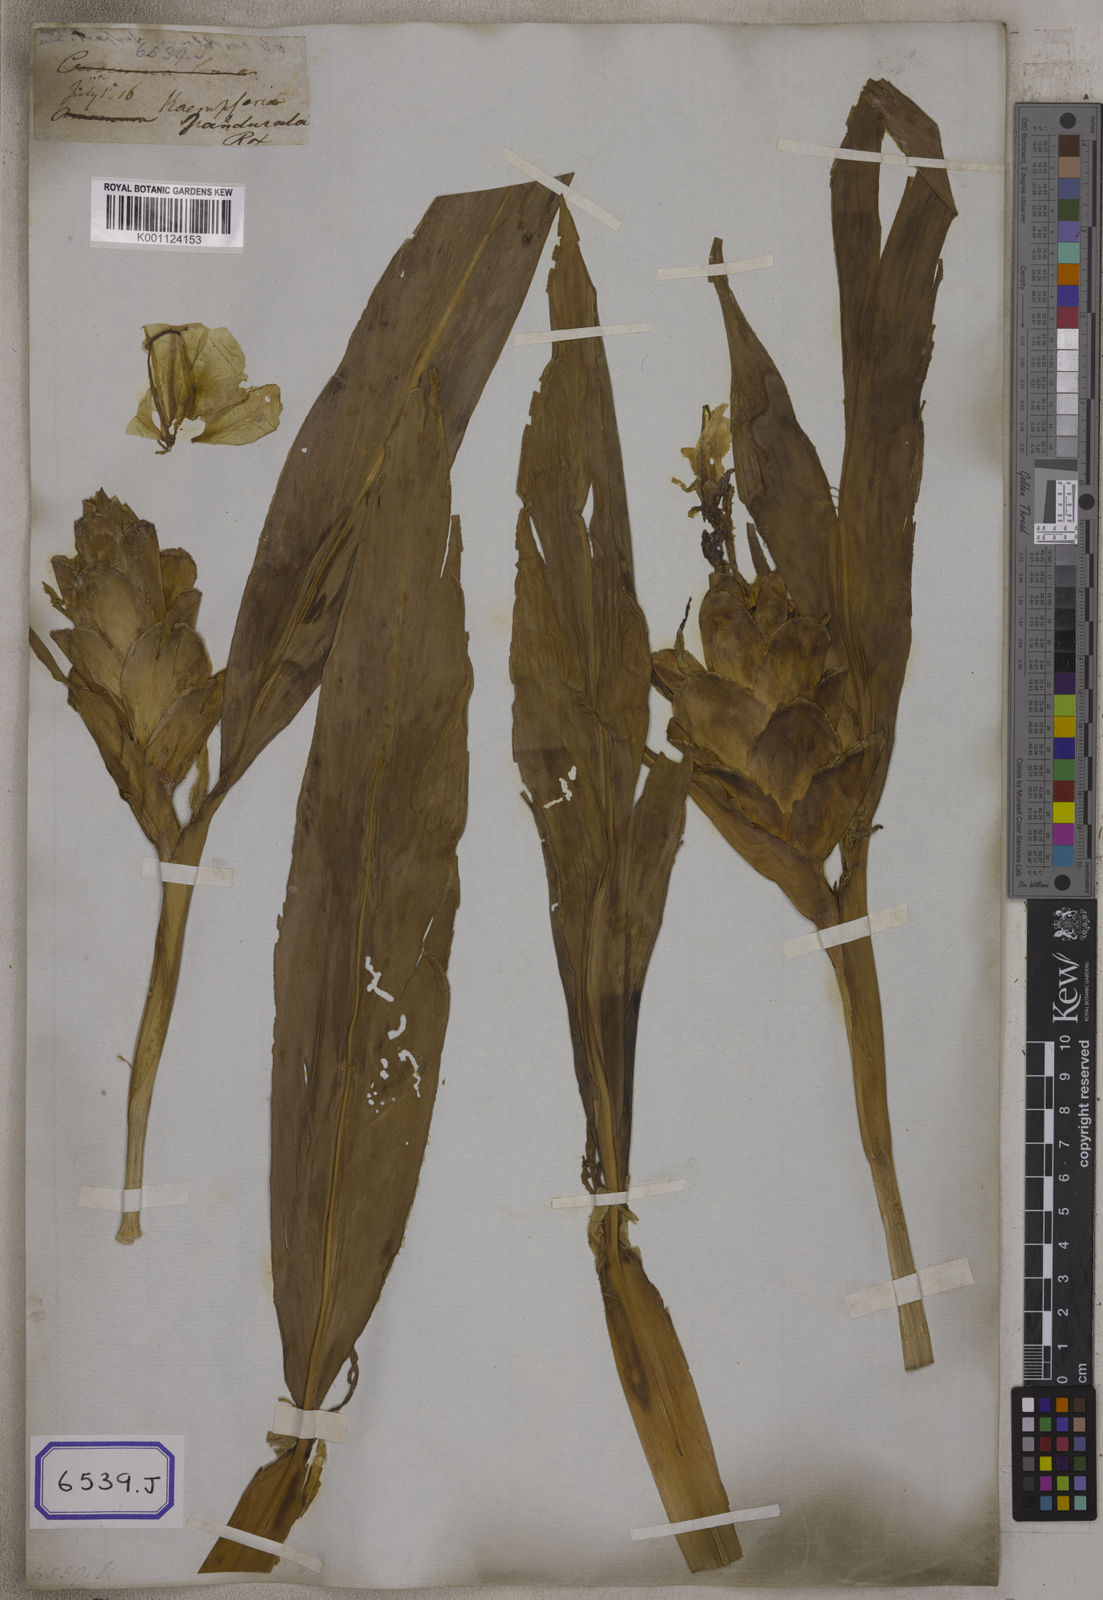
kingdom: Plantae
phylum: Tracheophyta
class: Liliopsida
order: Zingiberales
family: Zingiberaceae
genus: Hedychium
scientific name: Hedychium coronarium
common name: White garland-lily
